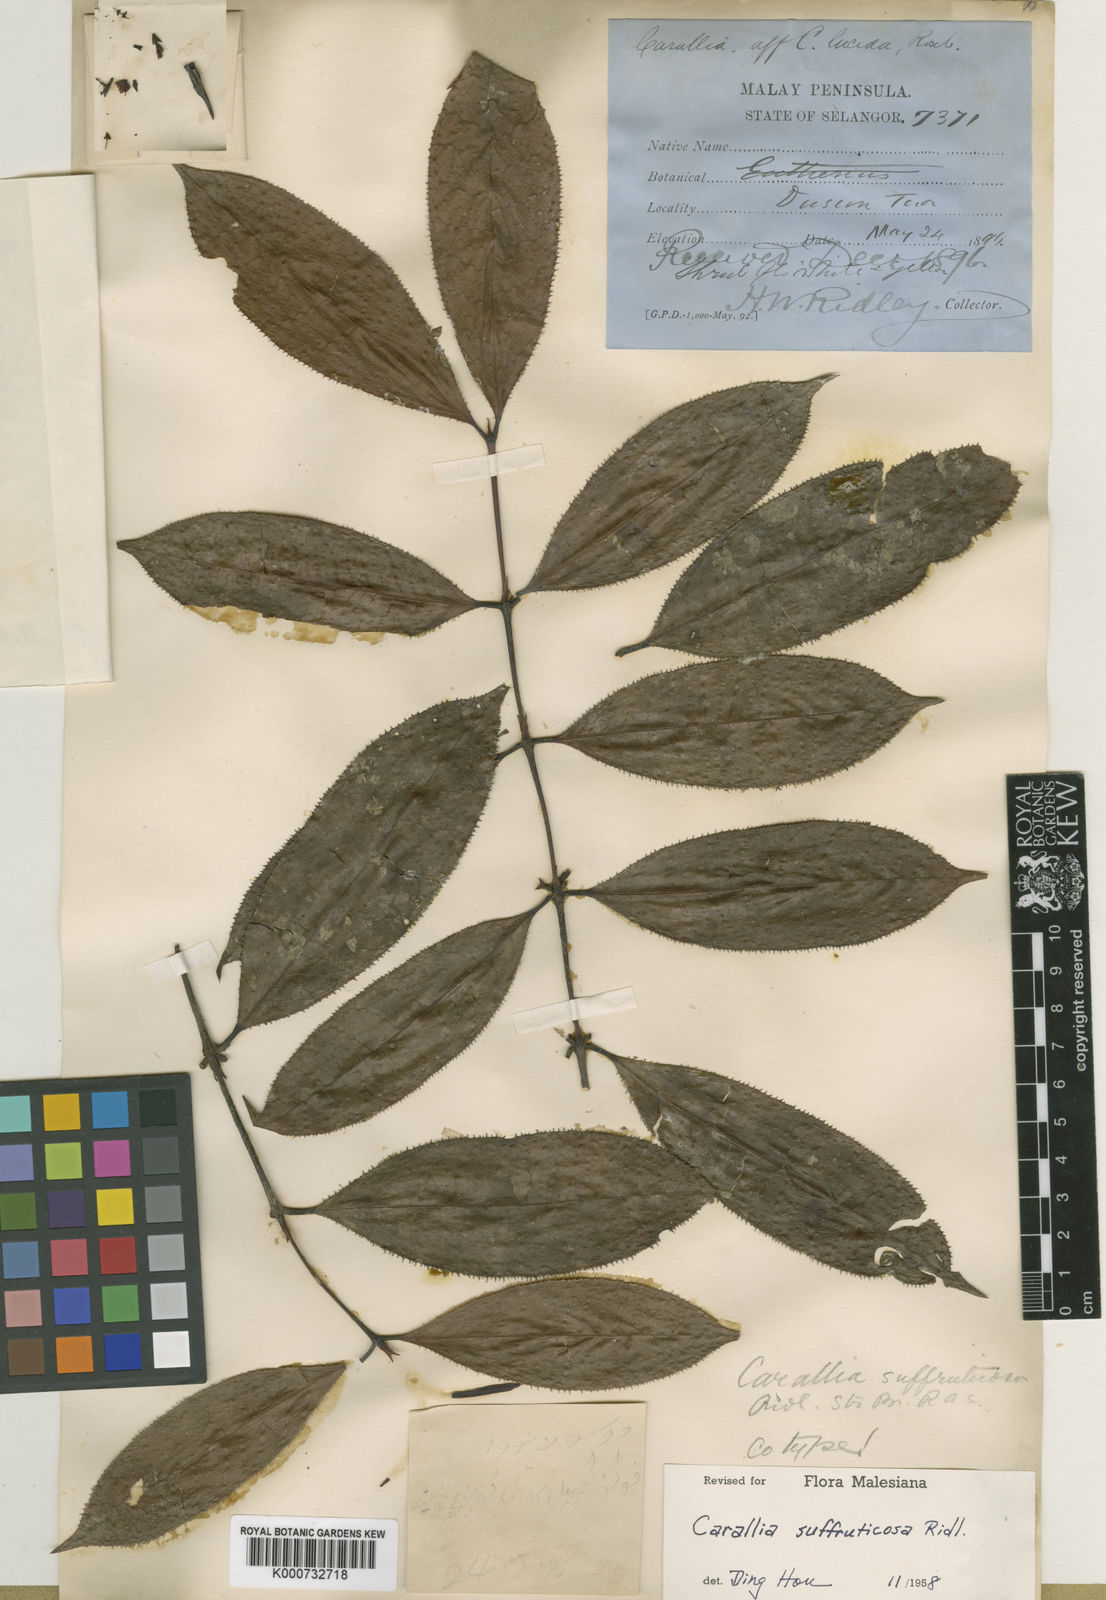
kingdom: Plantae
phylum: Tracheophyta
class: Magnoliopsida
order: Malpighiales
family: Rhizophoraceae
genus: Carallia
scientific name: Carallia suffruticosa
